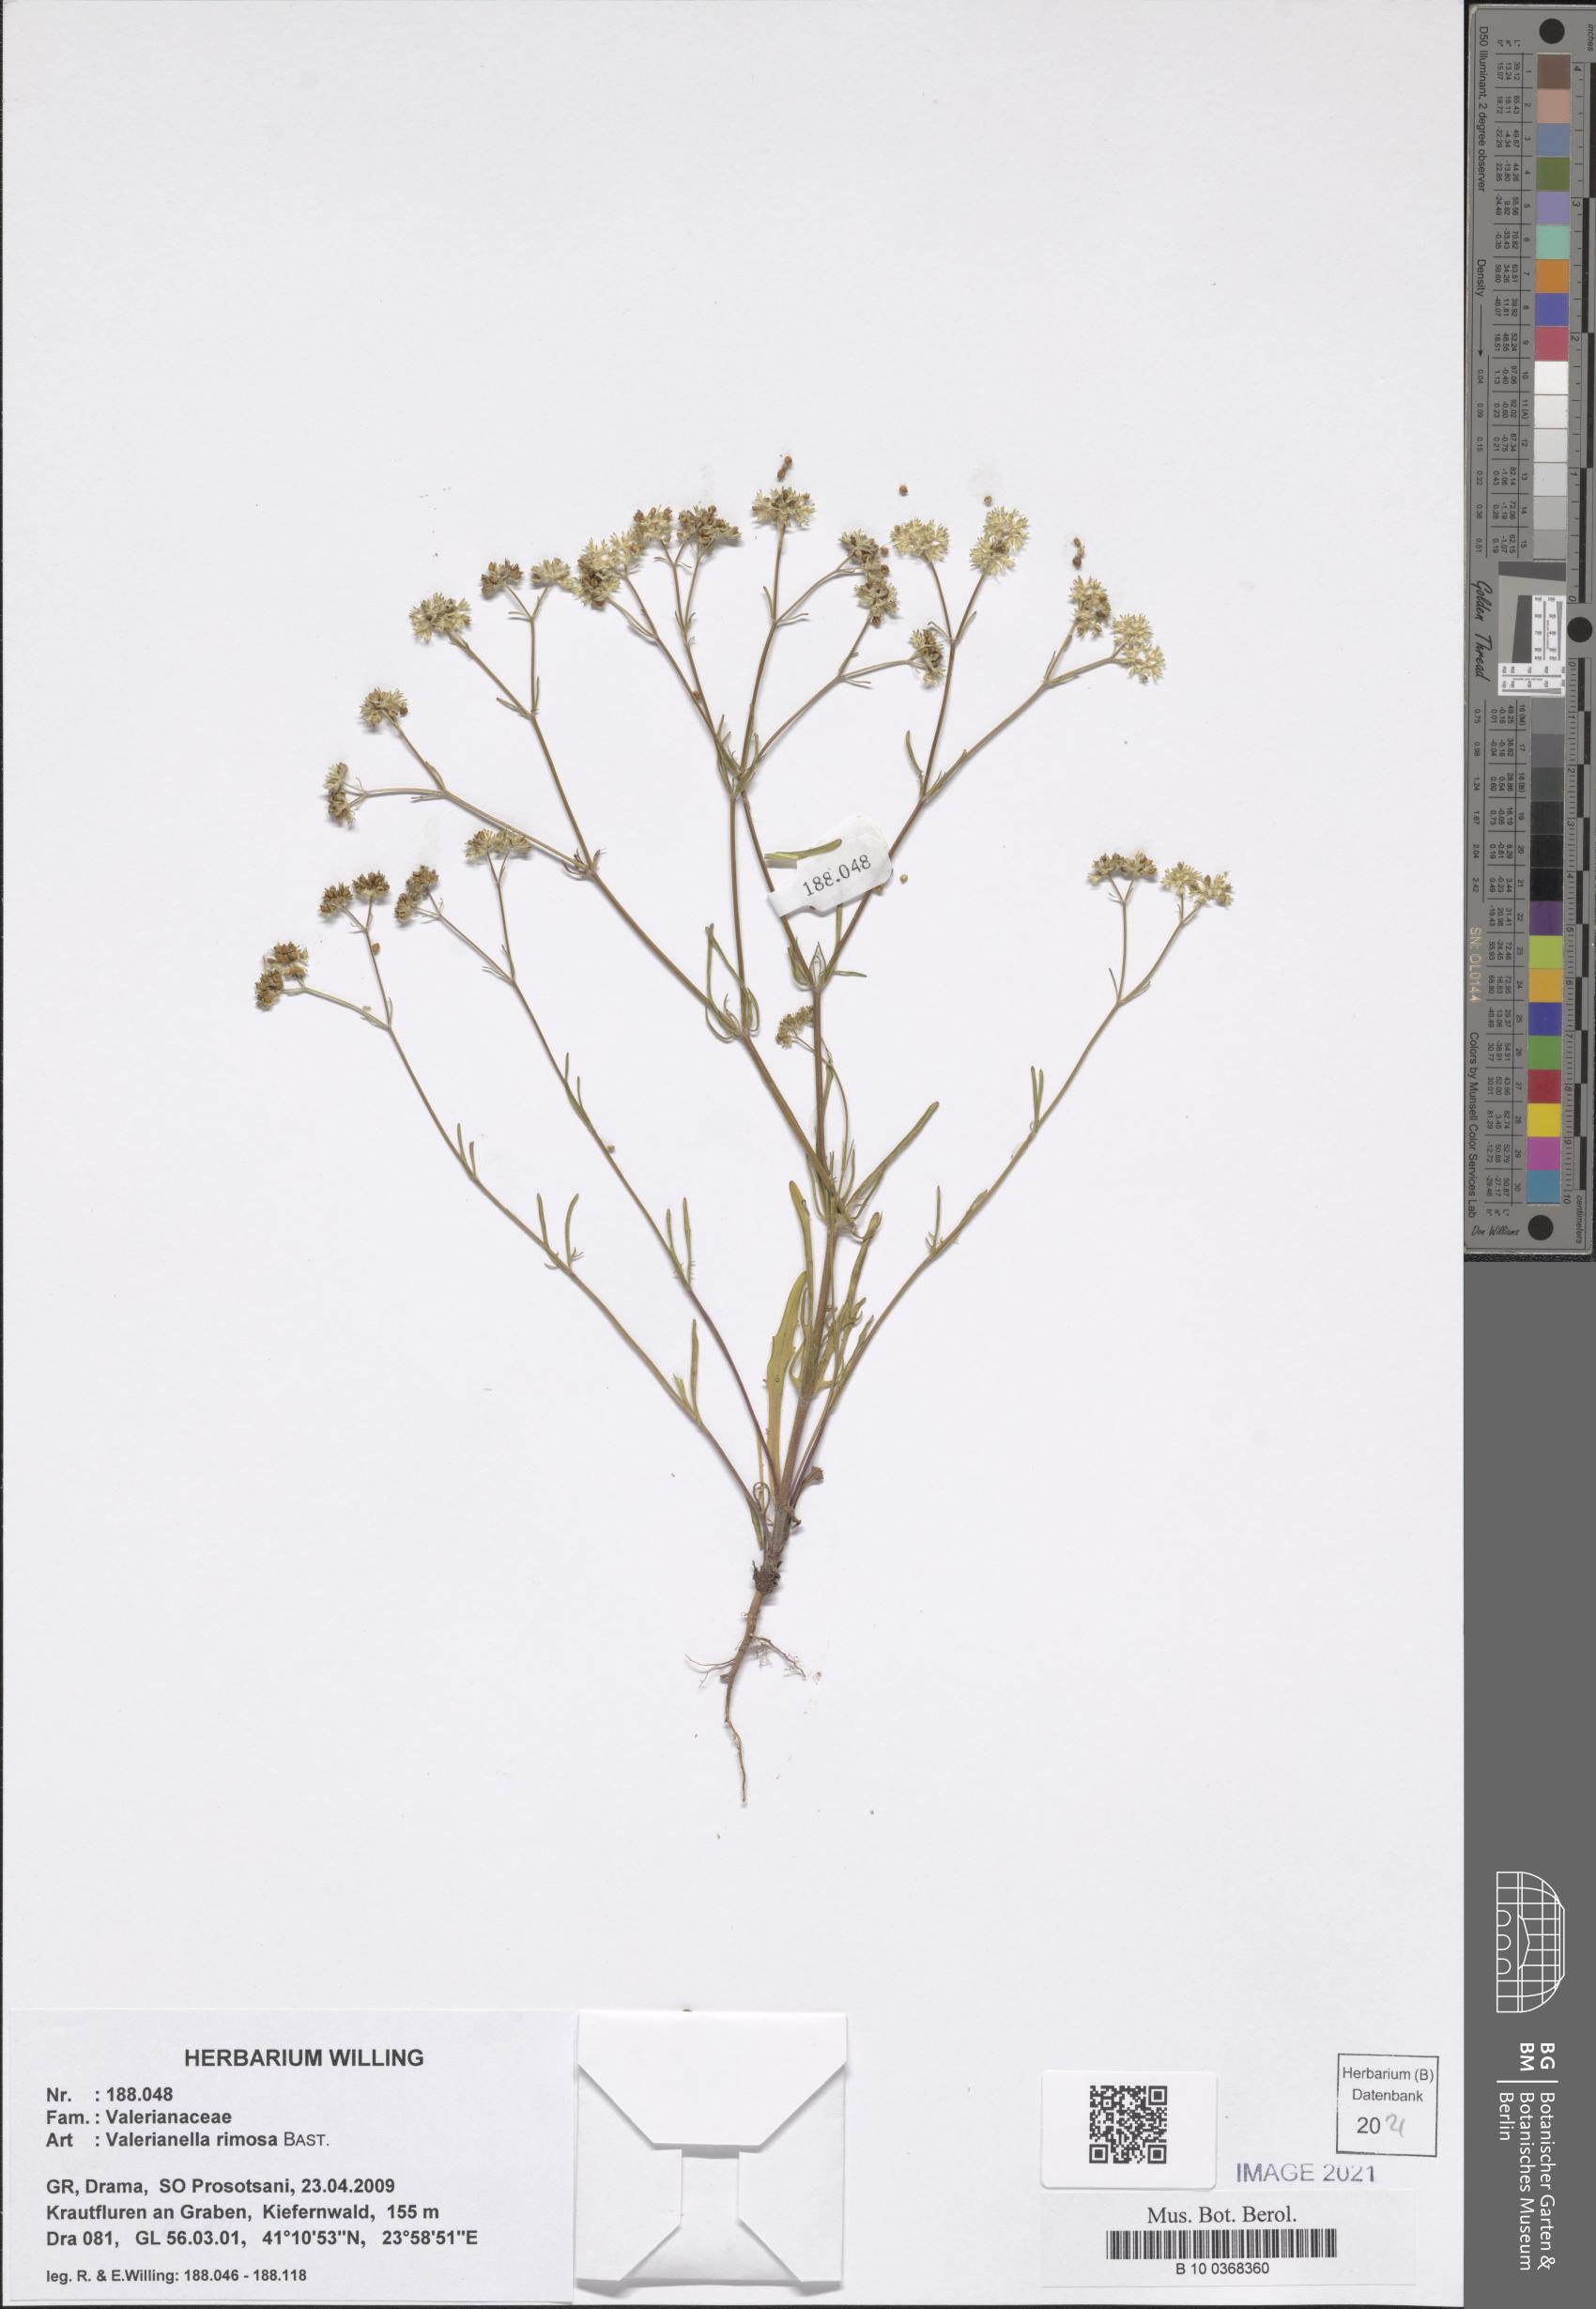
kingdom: Plantae
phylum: Tracheophyta
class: Magnoliopsida
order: Dipsacales
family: Caprifoliaceae
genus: Valerianella
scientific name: Valerianella rimosa
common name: Broad-fruited cornsalad
